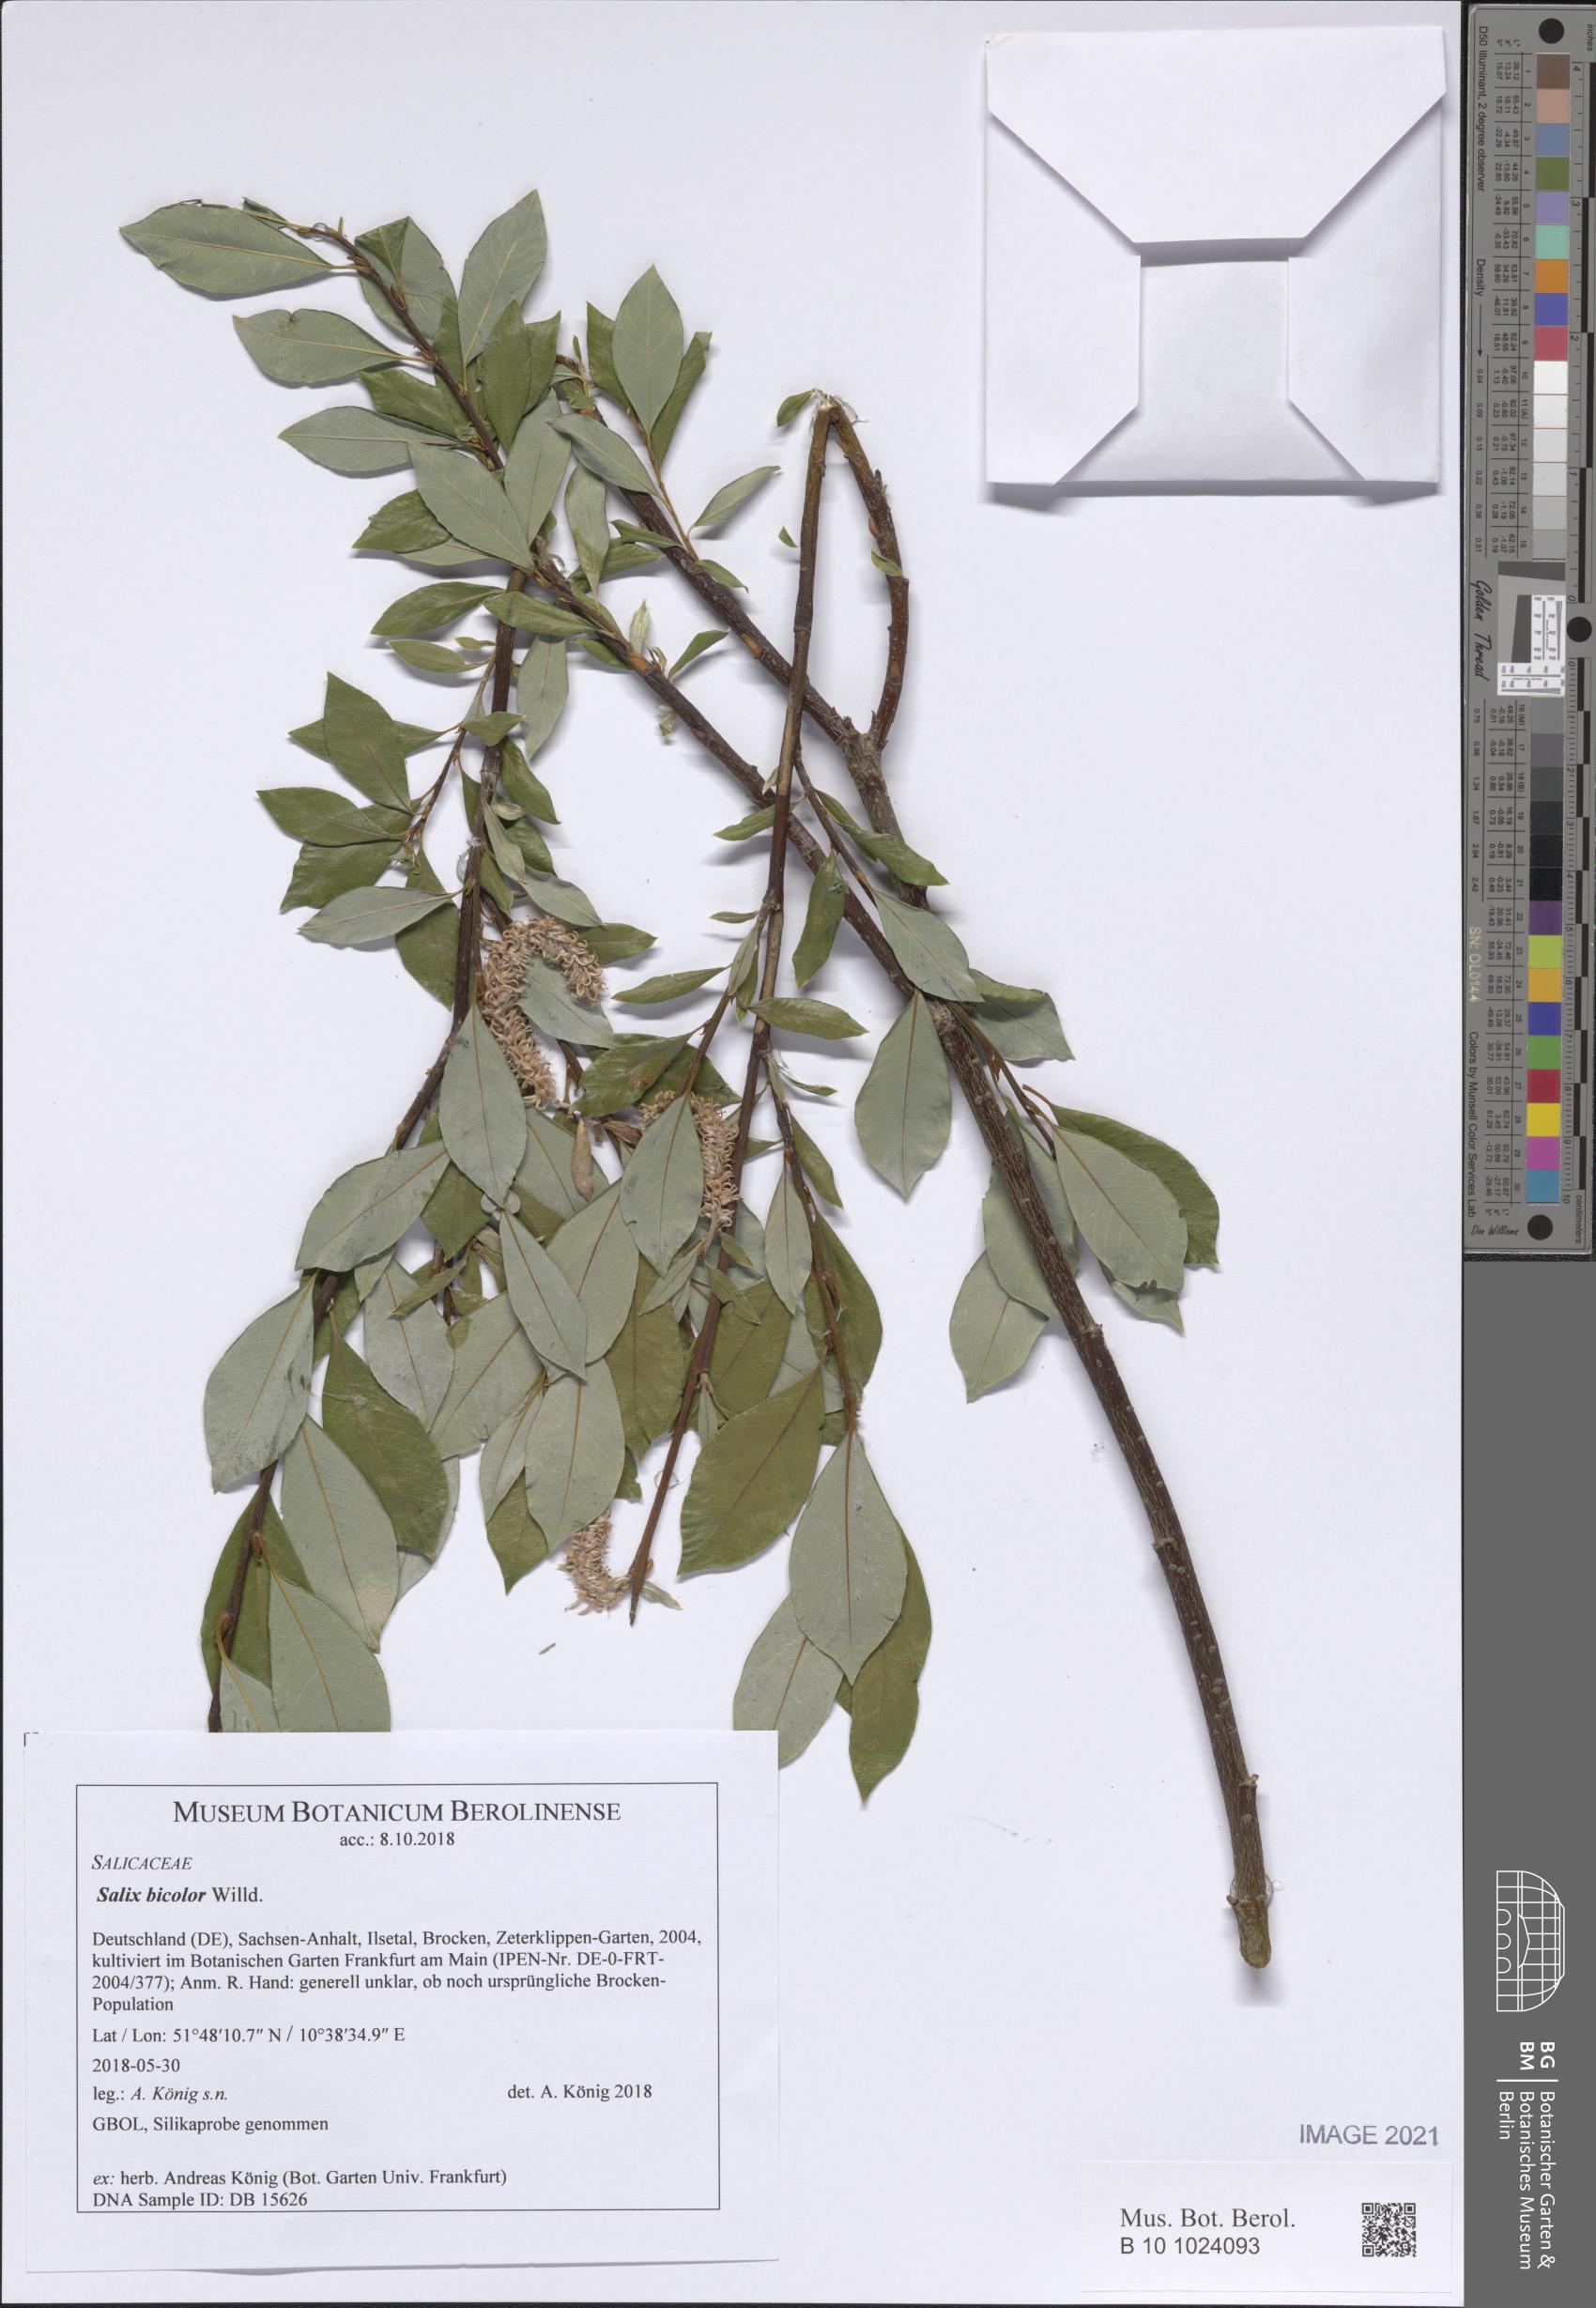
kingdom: Plantae
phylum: Tracheophyta
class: Magnoliopsida
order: Malpighiales
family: Salicaceae
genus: Salix
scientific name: Salix bicolor
